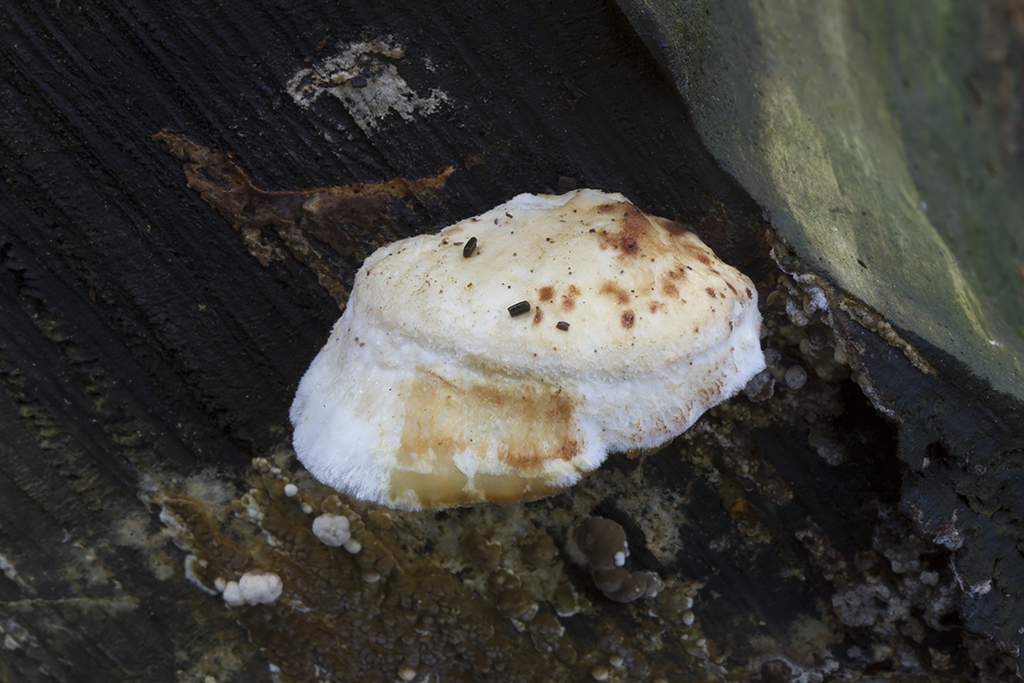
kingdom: Fungi
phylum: Basidiomycota
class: Agaricomycetes
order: Polyporales
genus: Fuscopostia
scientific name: Fuscopostia fragilis
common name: brunende kødporesvamp
